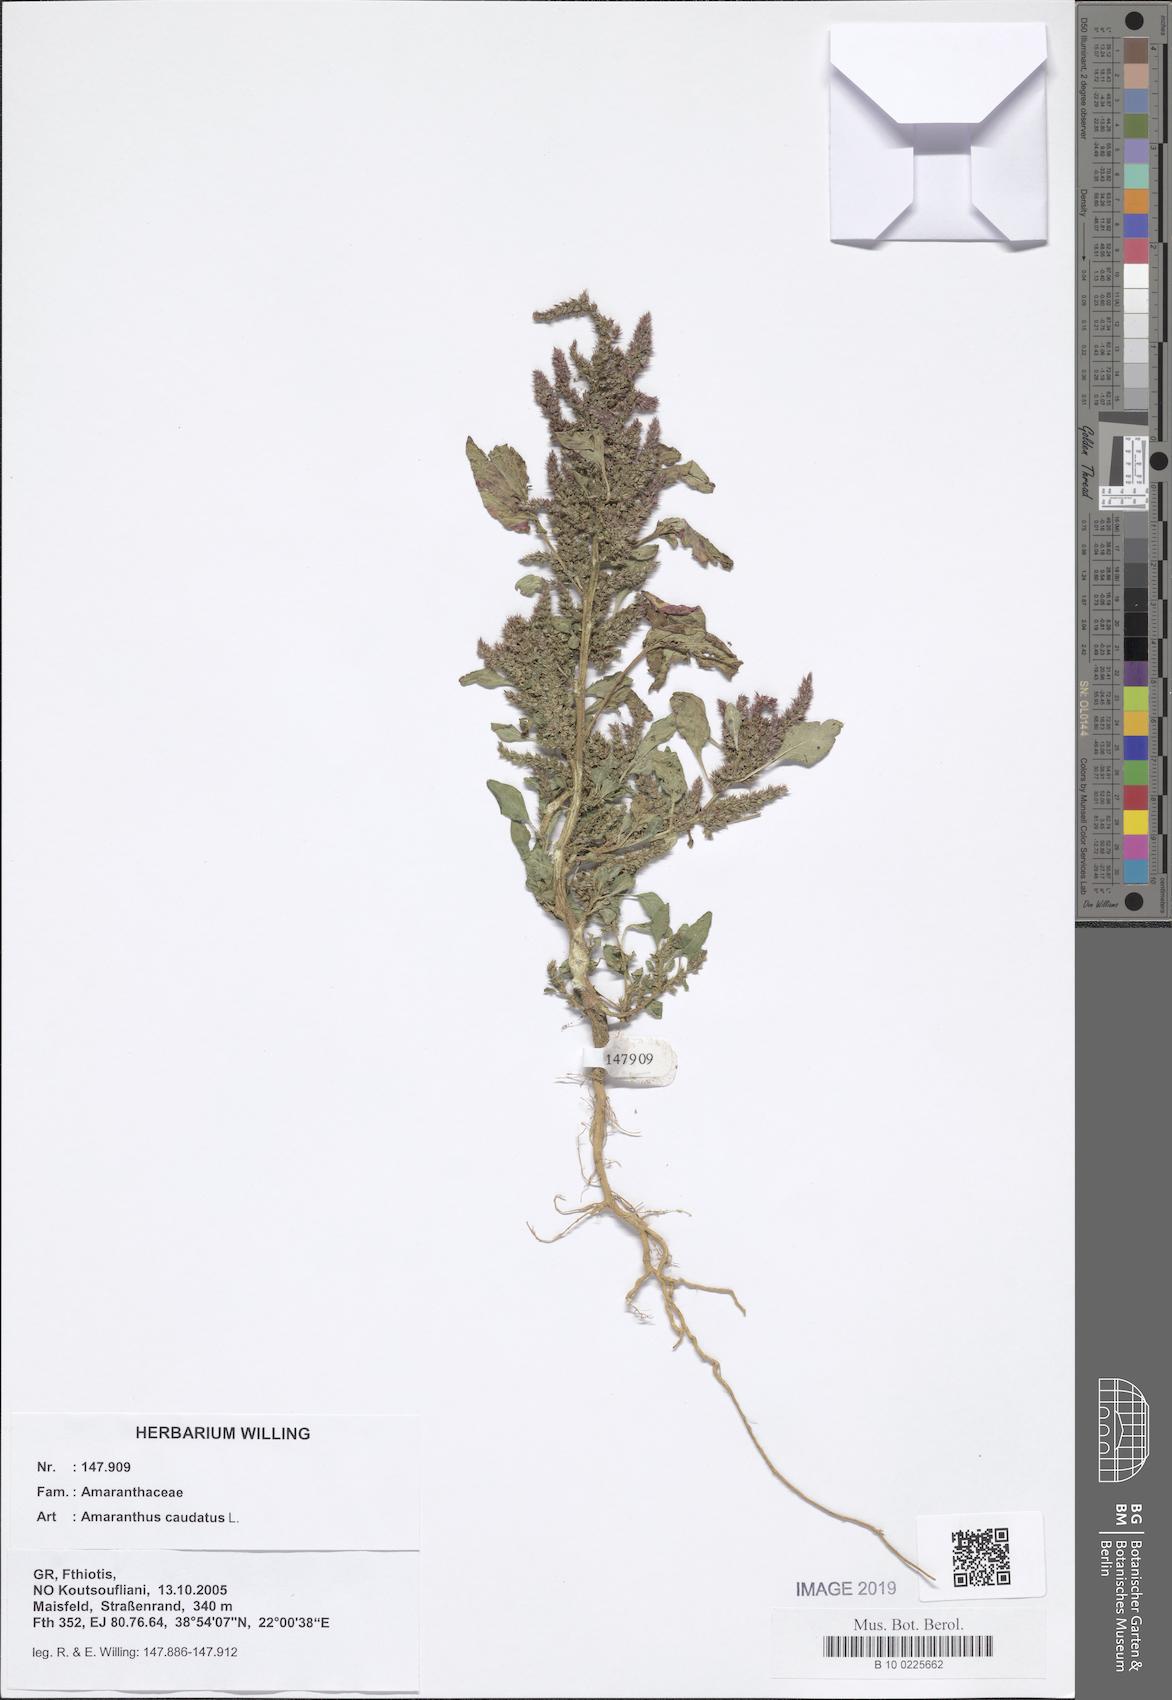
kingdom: Plantae
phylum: Tracheophyta
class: Magnoliopsida
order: Caryophyllales
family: Amaranthaceae
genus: Amaranthus
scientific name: Amaranthus caudatus
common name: Love-lies-bleeding
